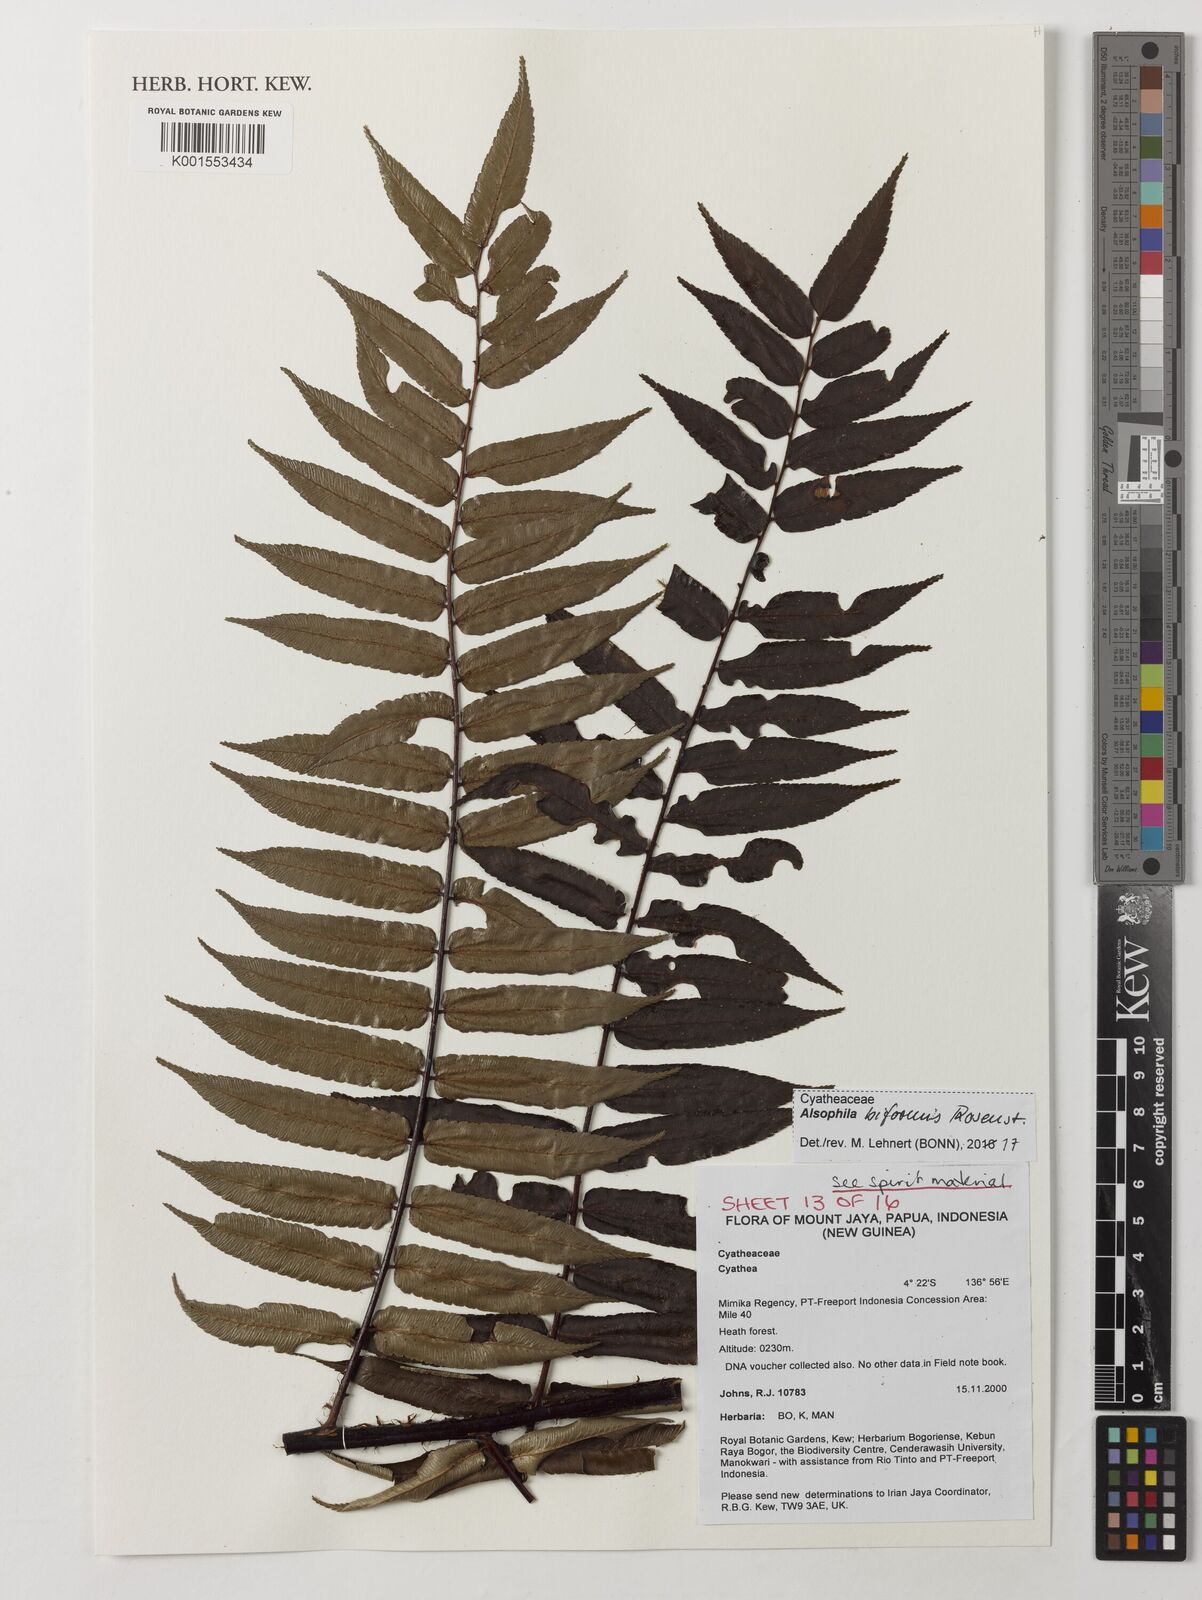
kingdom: Plantae
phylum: Tracheophyta
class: Polypodiopsida
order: Cyatheales
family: Cyatheaceae
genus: Gymnosphaera
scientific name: Gymnosphaera biformis
